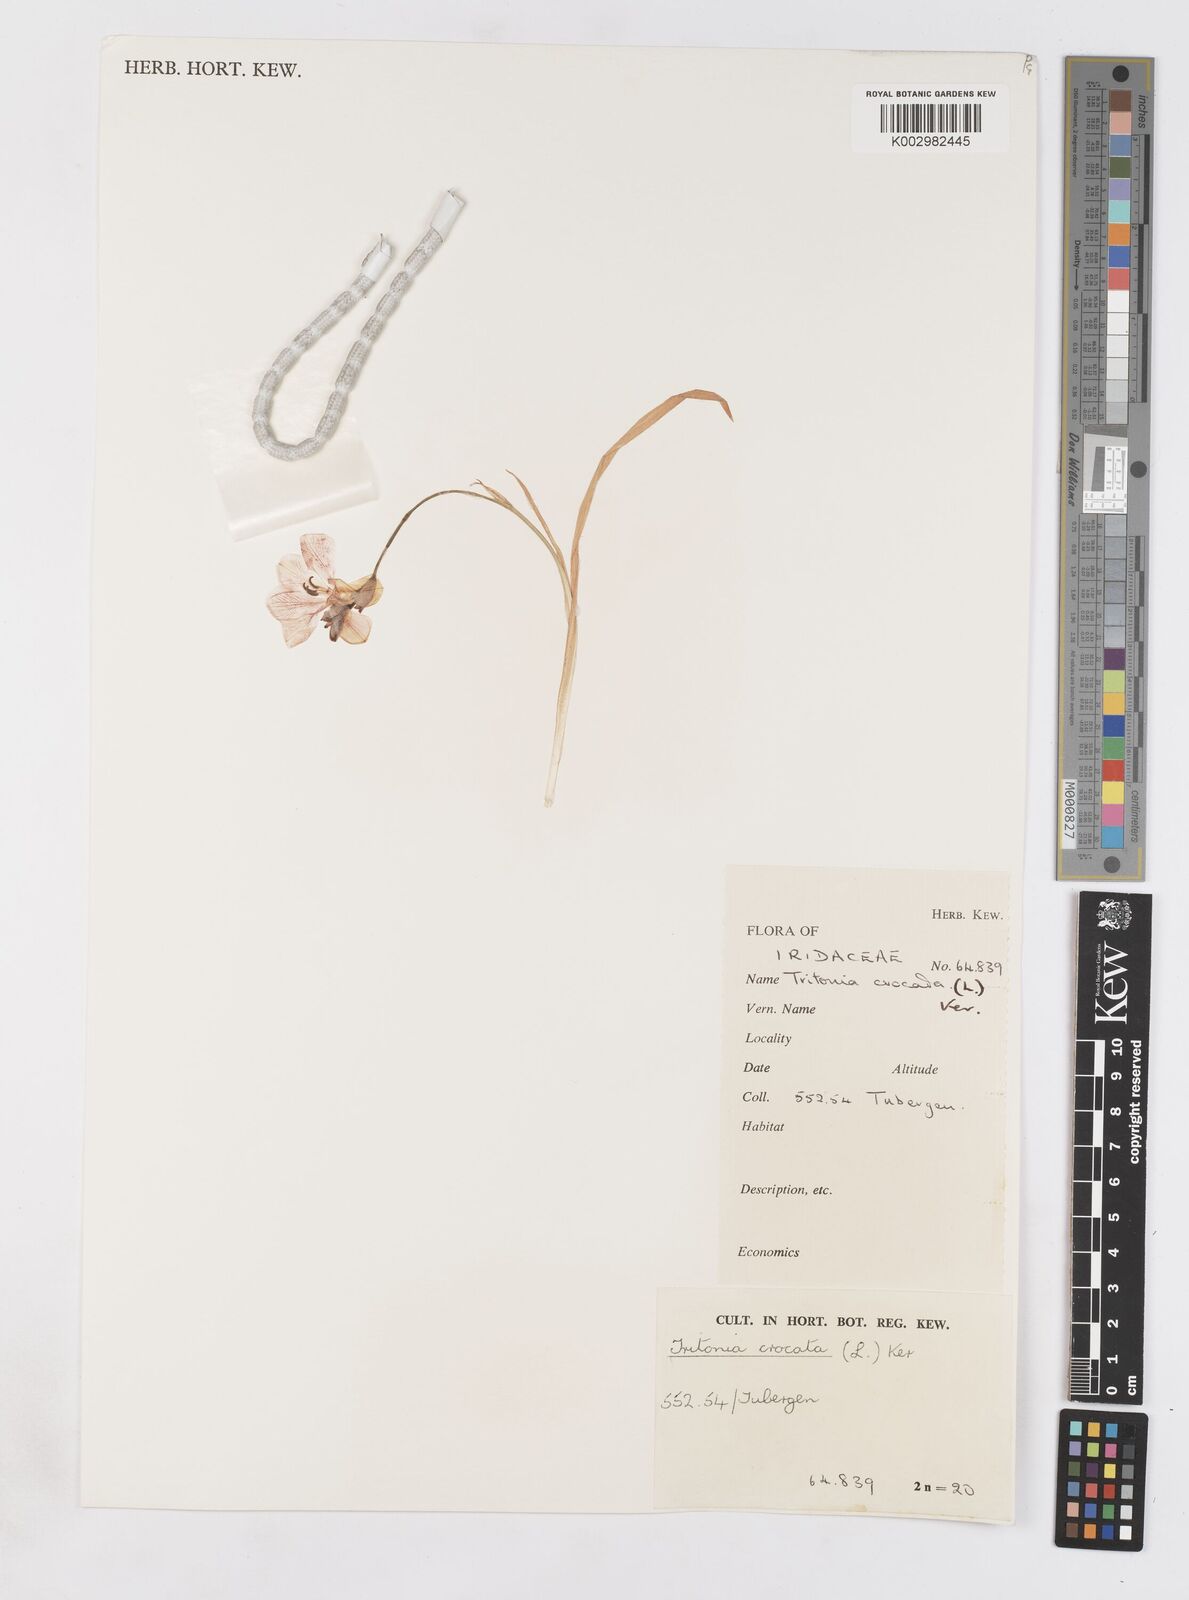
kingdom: Plantae
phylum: Tracheophyta
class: Liliopsida
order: Asparagales
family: Iridaceae
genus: Tritonia
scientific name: Tritonia crocata
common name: Flame-freesia
